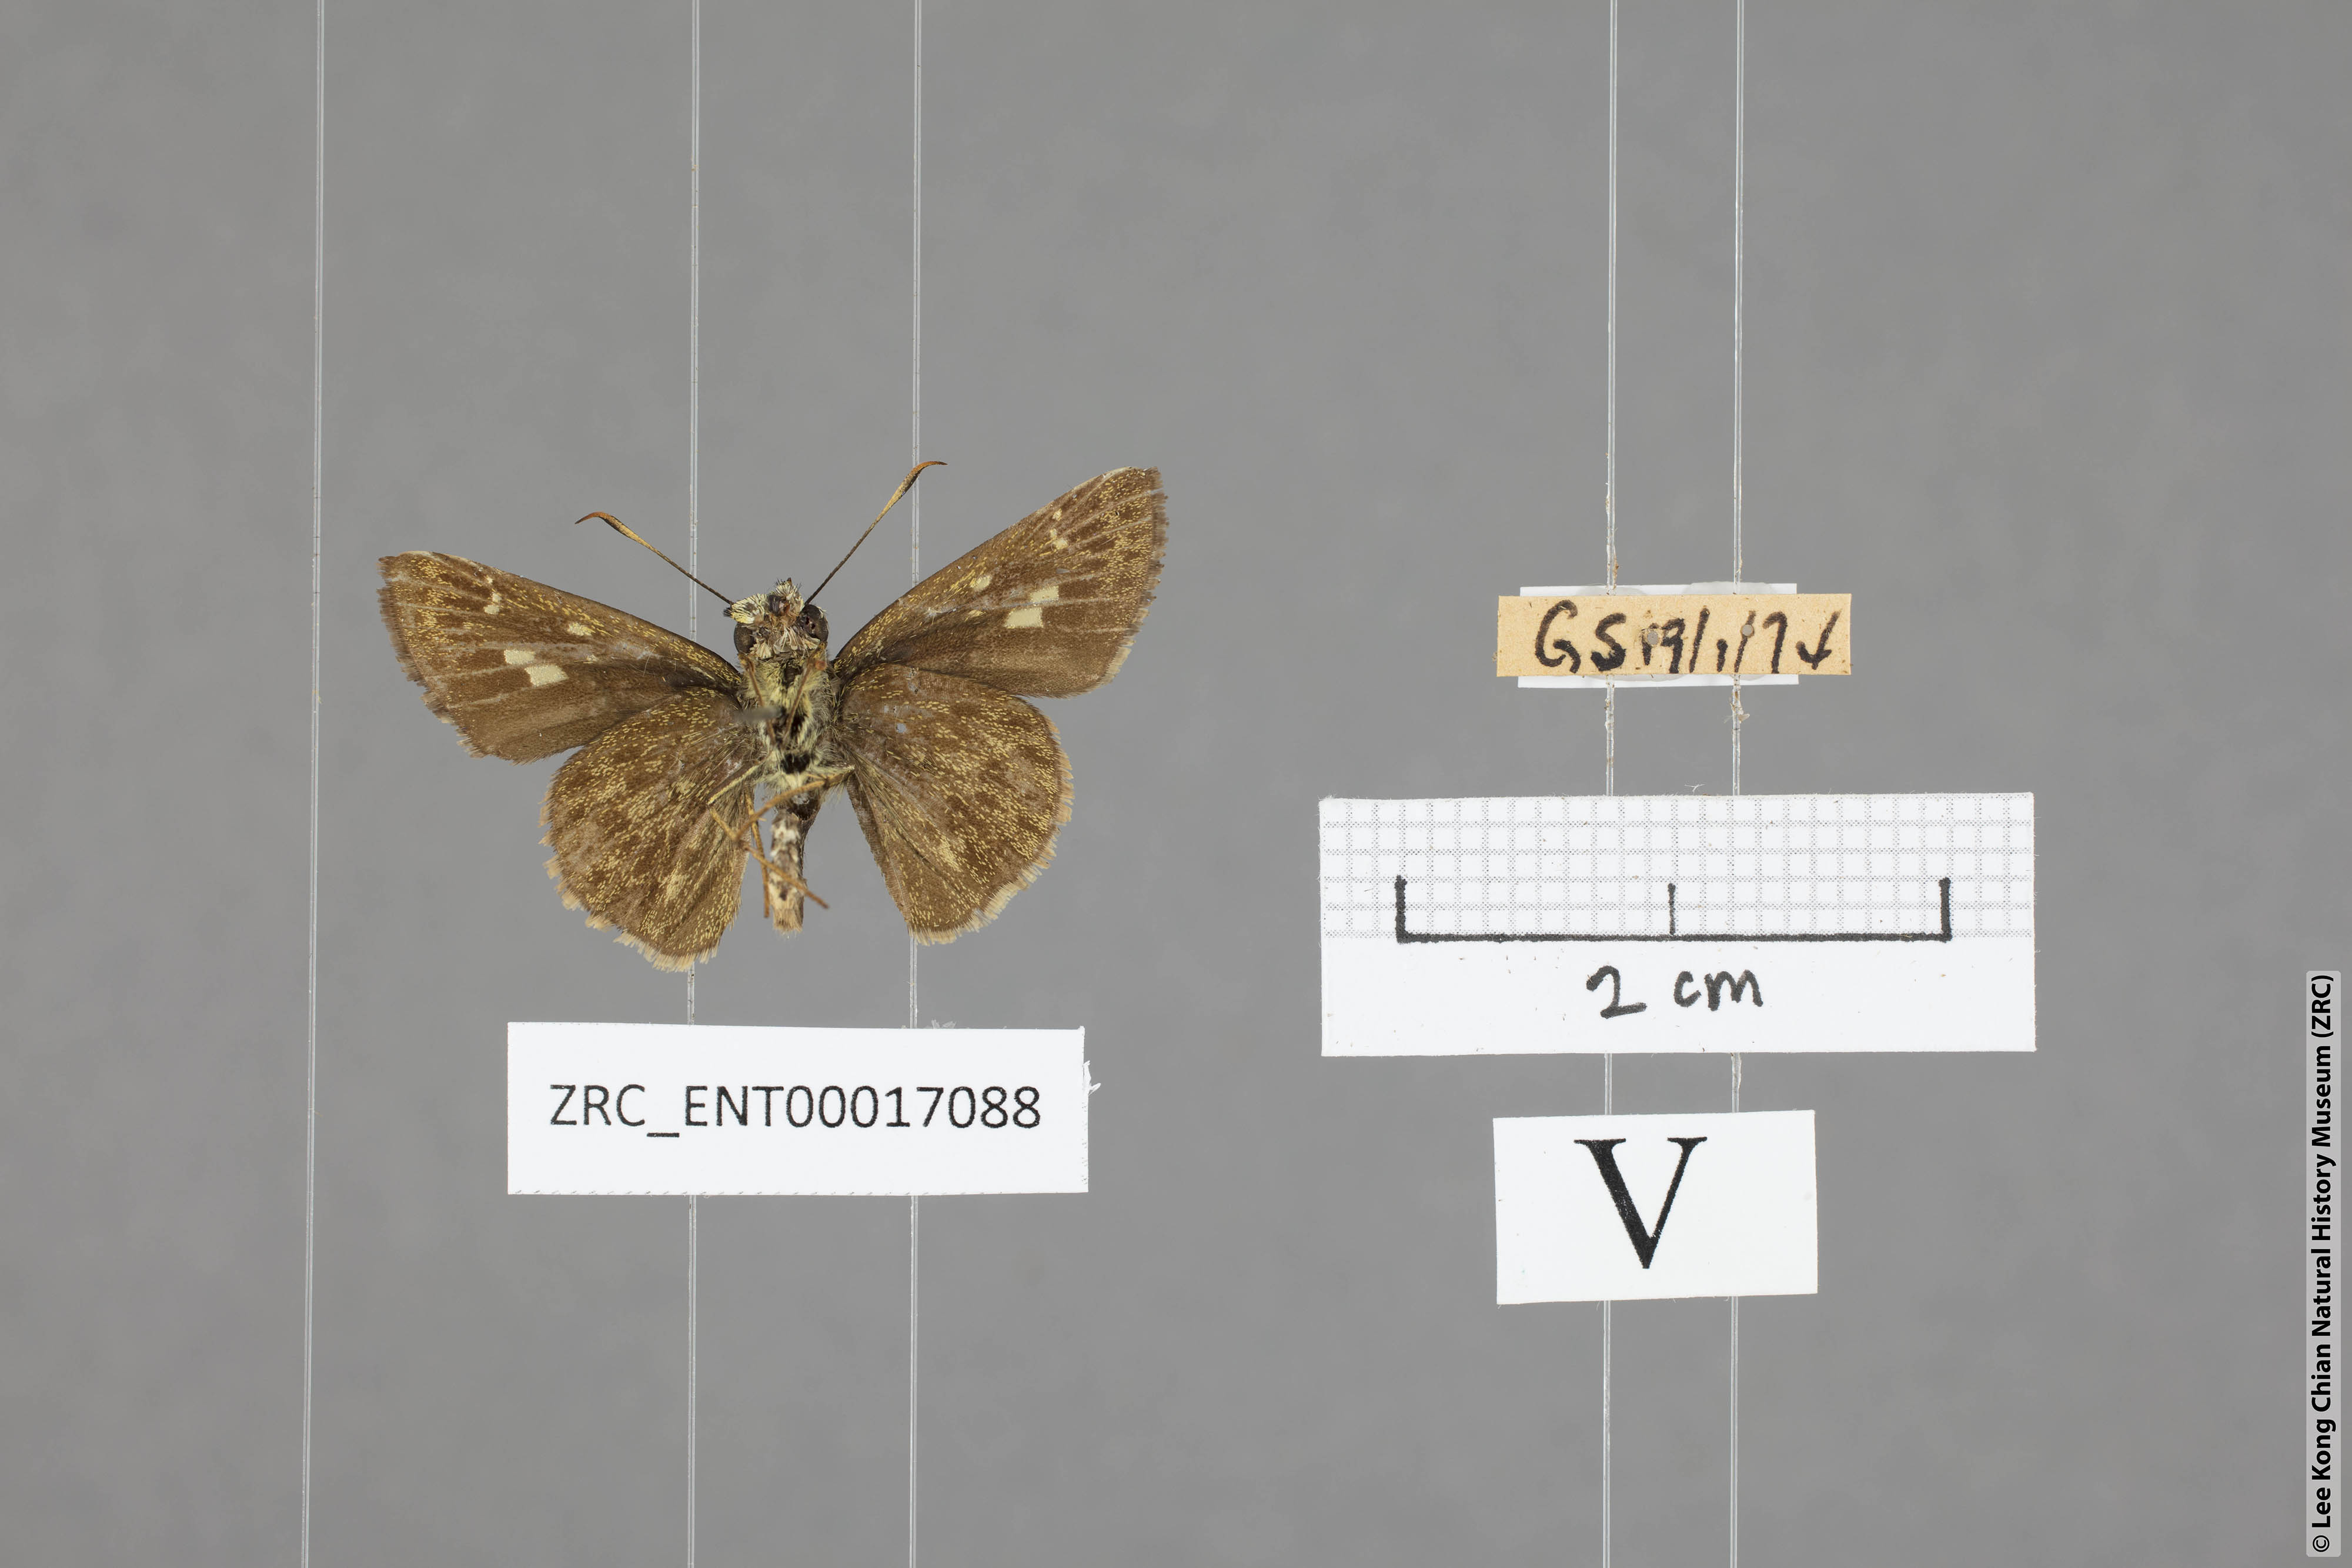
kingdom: Animalia
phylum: Arthropoda
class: Insecta
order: Lepidoptera
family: Hesperiidae
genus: Halpe
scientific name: Halpe wantona
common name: Swinhoe's ace
